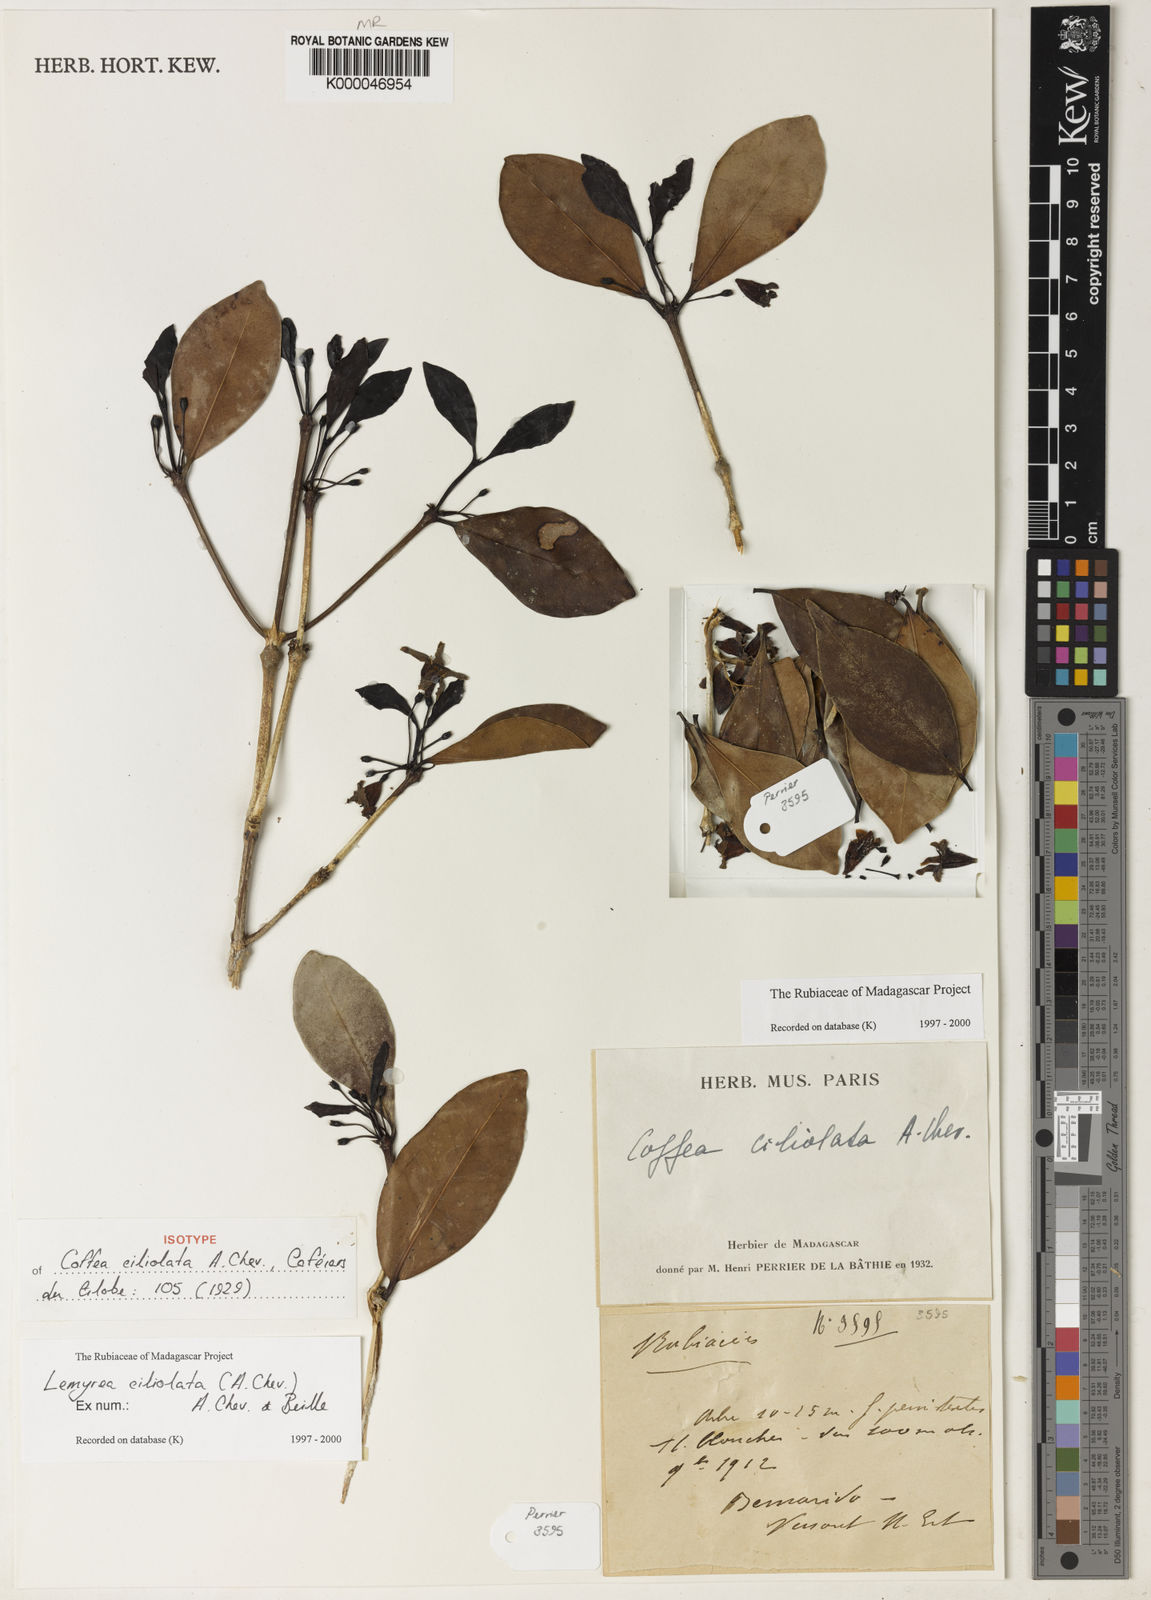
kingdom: Plantae
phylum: Tracheophyta
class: Magnoliopsida
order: Gentianales
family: Rubiaceae
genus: Lemyrea
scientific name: Lemyrea ciliolata
